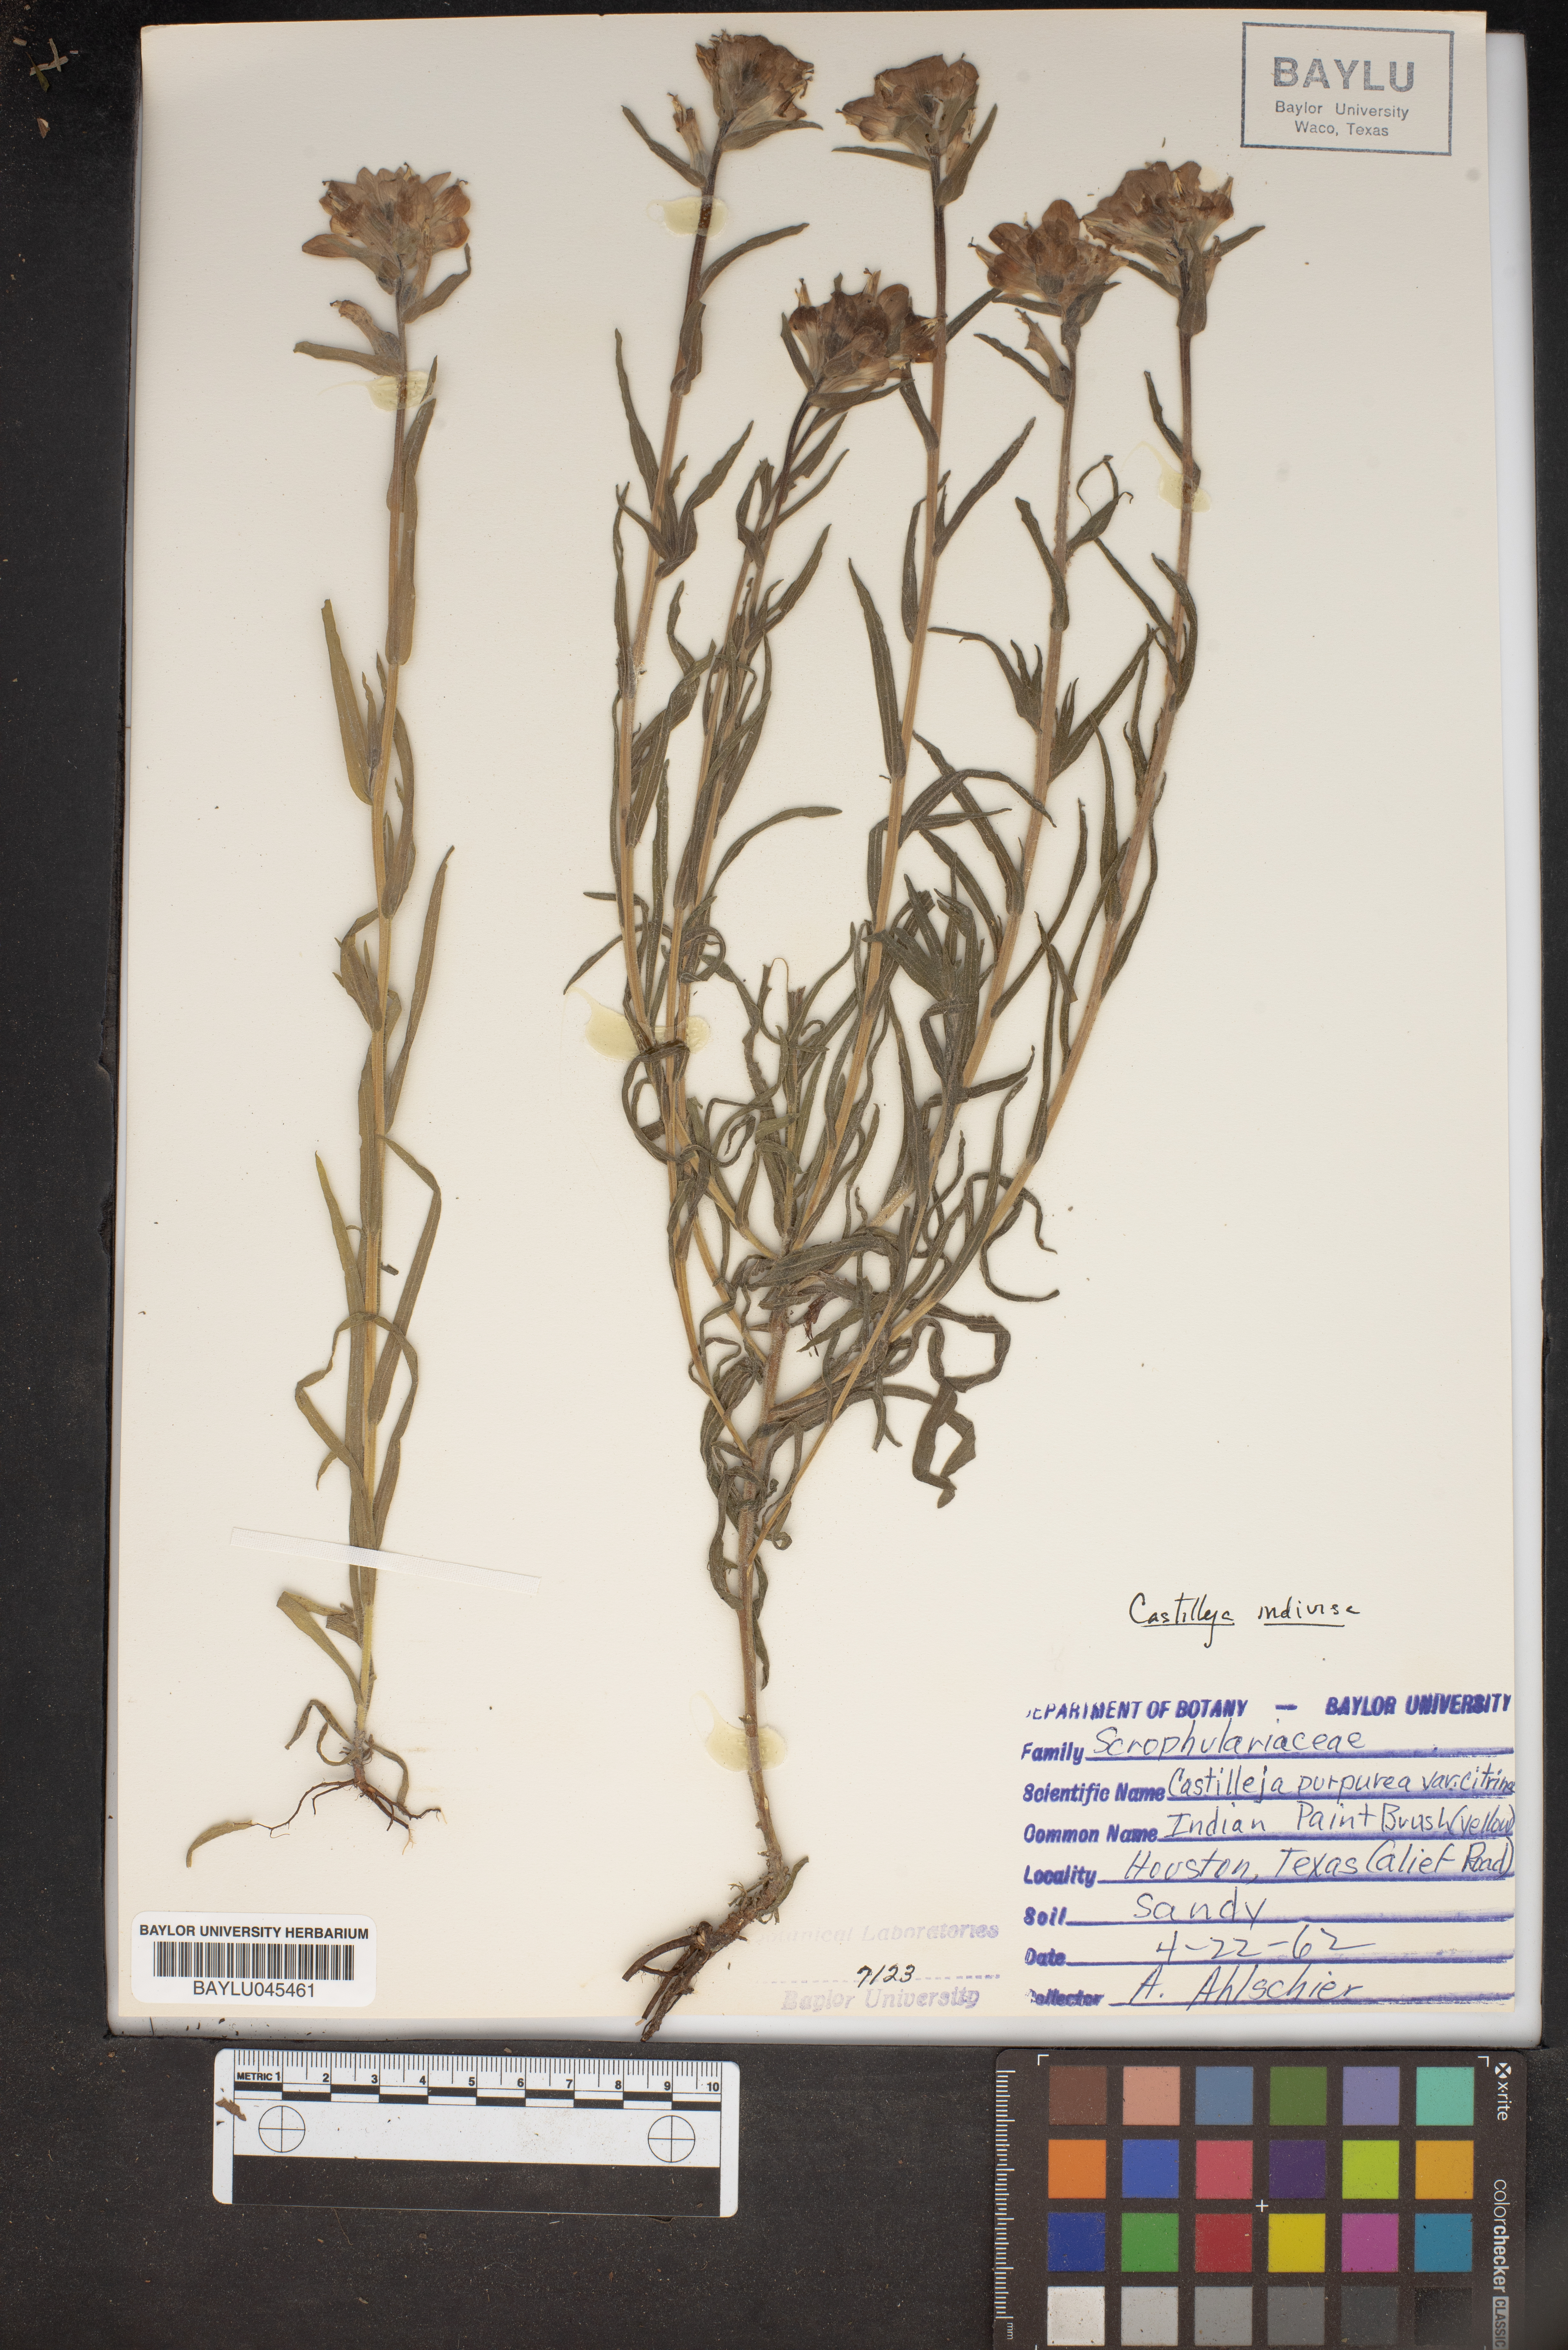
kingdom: Plantae
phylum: Tracheophyta
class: Magnoliopsida
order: Lamiales
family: Orobanchaceae
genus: Castilleja
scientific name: Castilleja purpurea
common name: Plains paintbrush
